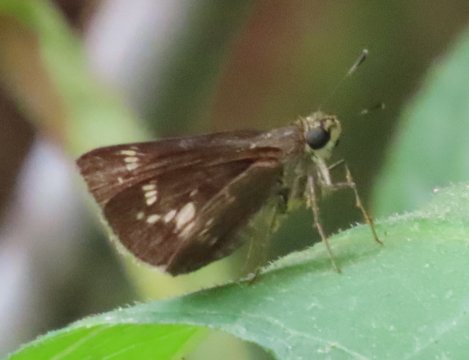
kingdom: Animalia
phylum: Arthropoda
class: Insecta
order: Lepidoptera
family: Hesperiidae
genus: Vernia
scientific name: Vernia verna
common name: Little Glassywing
